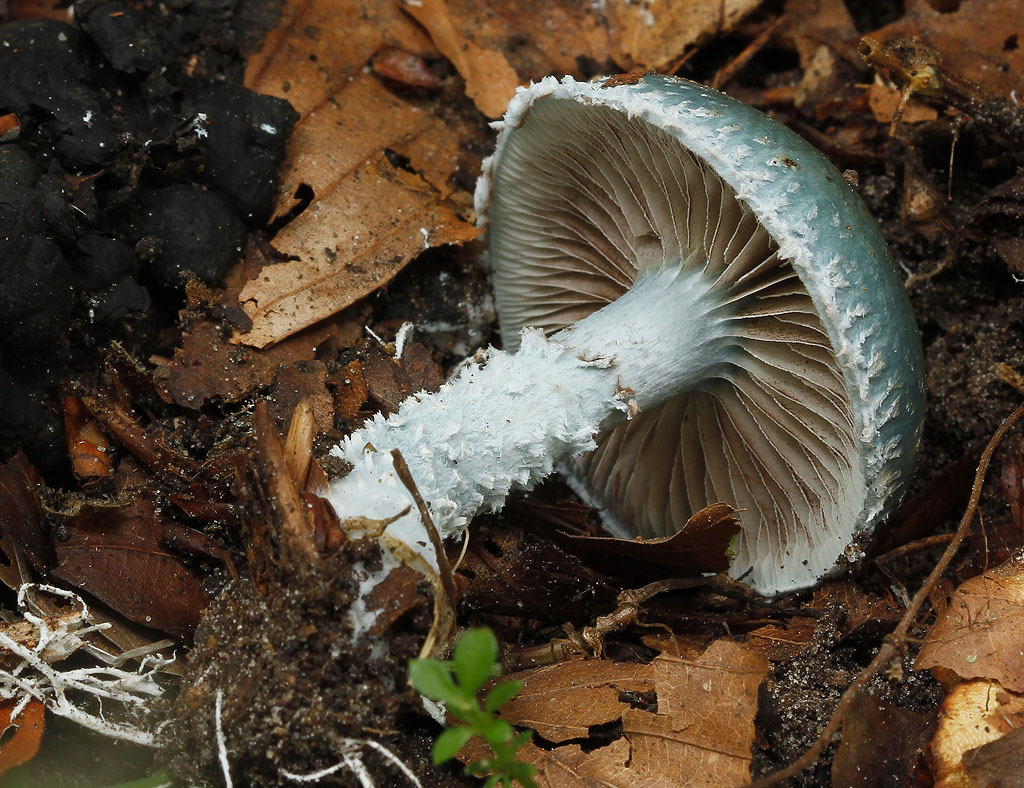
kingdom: Fungi
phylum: Basidiomycota
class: Agaricomycetes
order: Agaricales
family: Strophariaceae
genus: Stropharia
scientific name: Stropharia aeruginosa
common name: spanskgrøn bredblad
